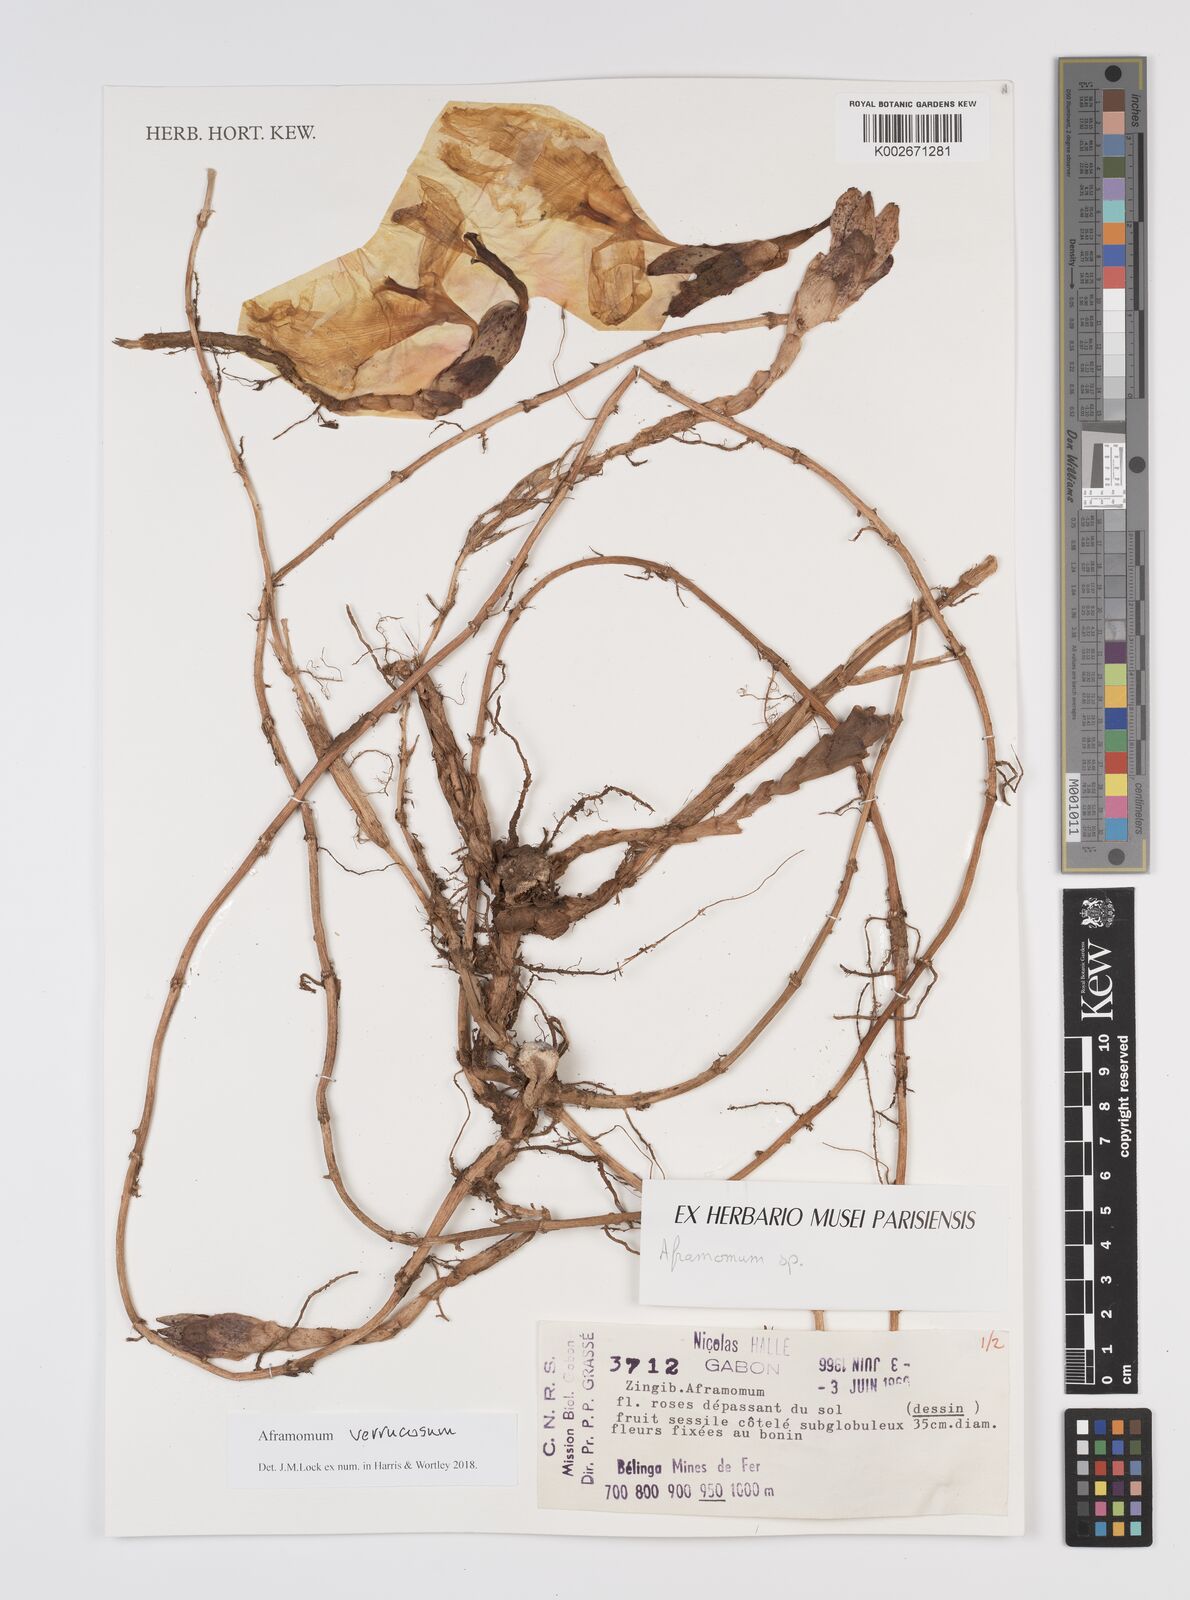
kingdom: Plantae
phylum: Tracheophyta
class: Liliopsida
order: Zingiberales
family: Zingiberaceae
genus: Aframomum
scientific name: Aframomum verrucosum
